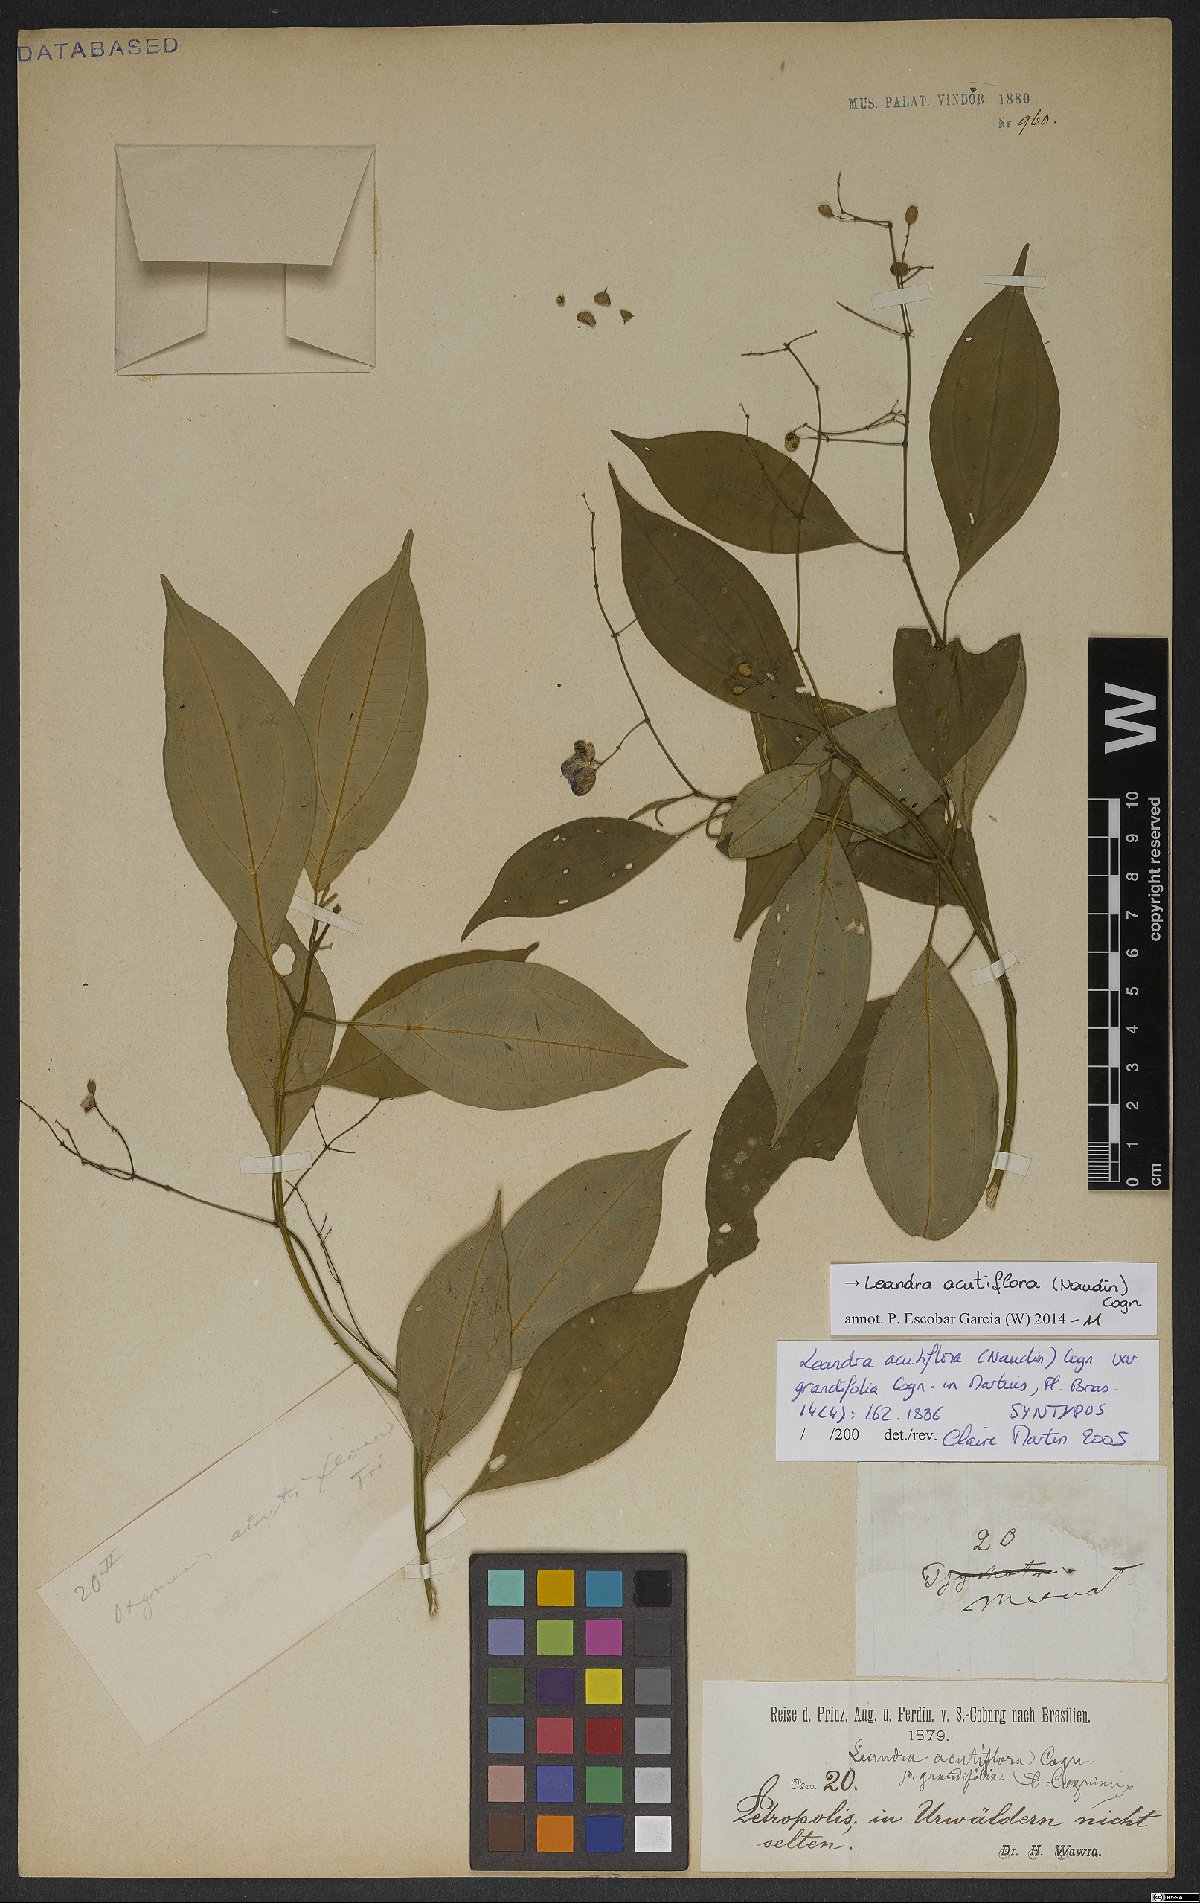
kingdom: Plantae
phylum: Tracheophyta
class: Magnoliopsida
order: Myrtales
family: Melastomataceae
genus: Miconia
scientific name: Miconia acutiflora
